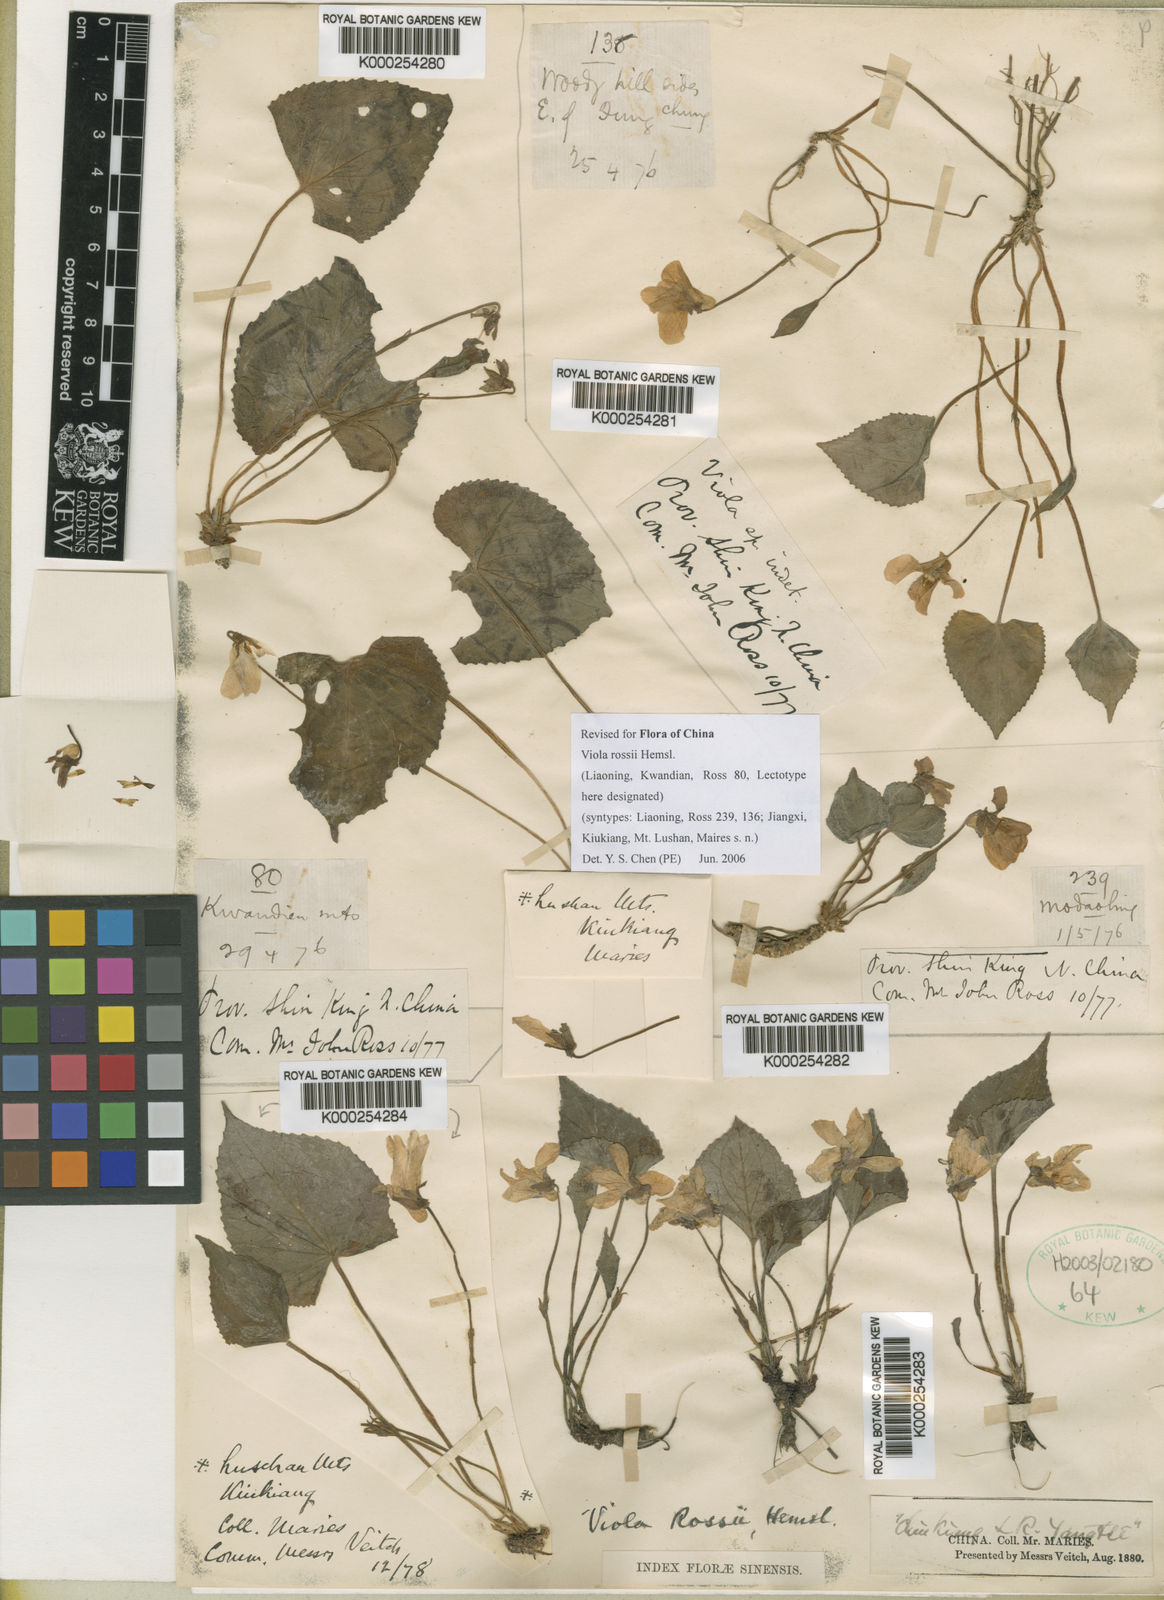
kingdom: Plantae
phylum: Tracheophyta
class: Magnoliopsida
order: Malpighiales
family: Violaceae
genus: Viola
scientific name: Viola rossii
